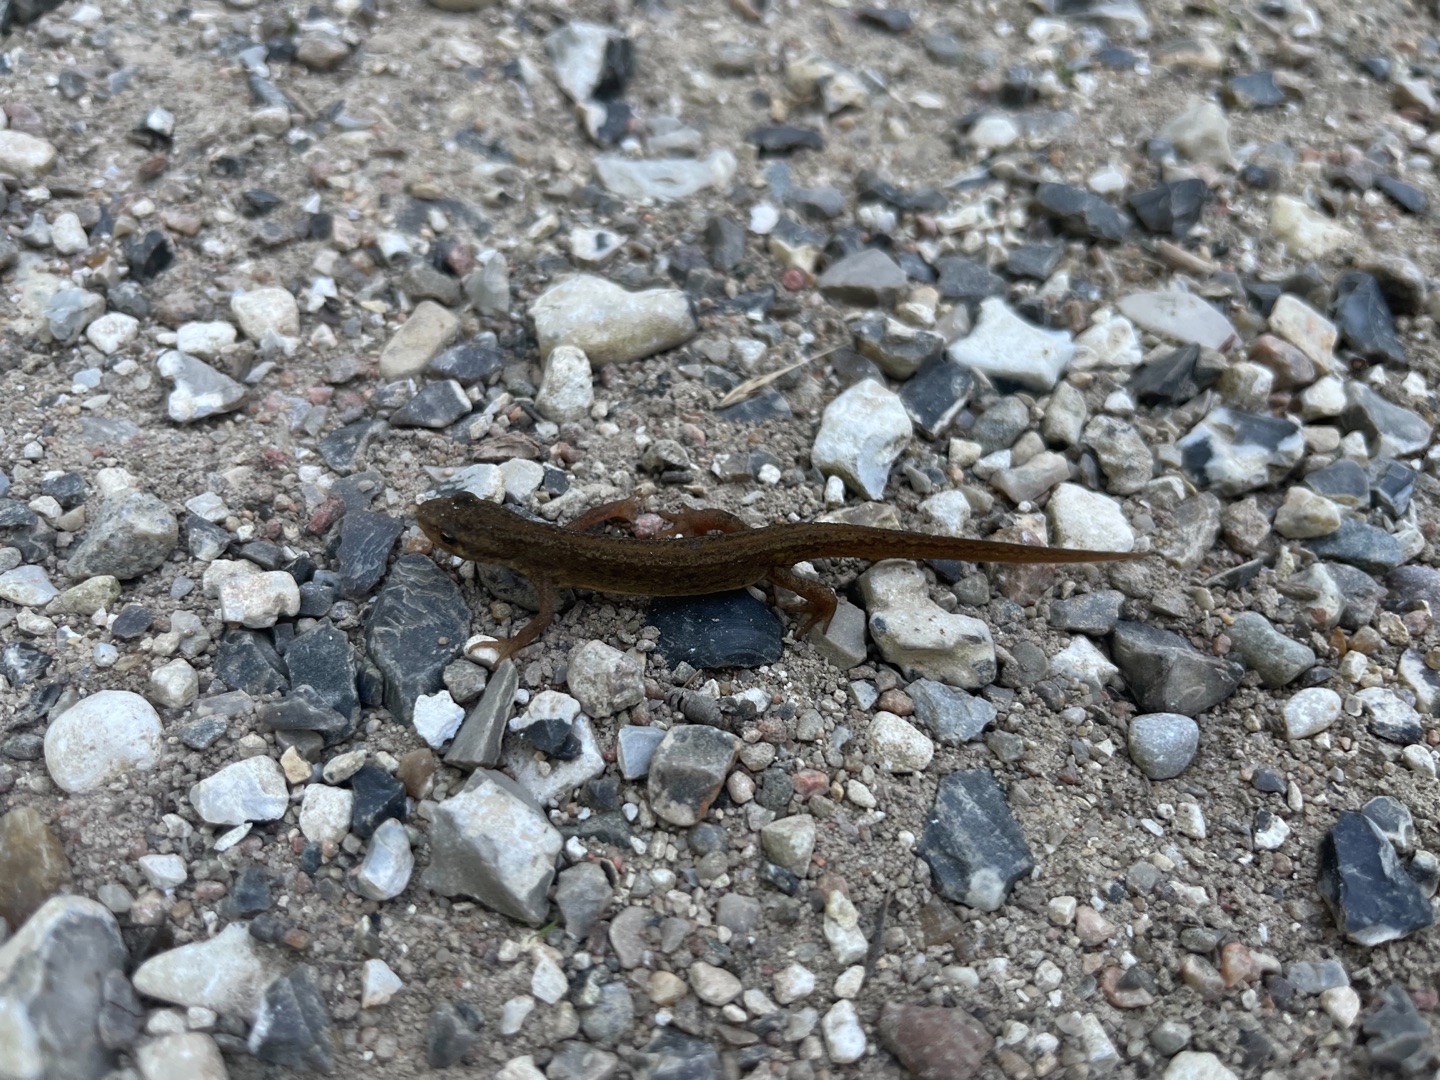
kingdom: Animalia
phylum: Chordata
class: Amphibia
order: Caudata
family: Salamandridae
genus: Lissotriton
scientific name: Lissotriton vulgaris
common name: Lille vandsalamander
